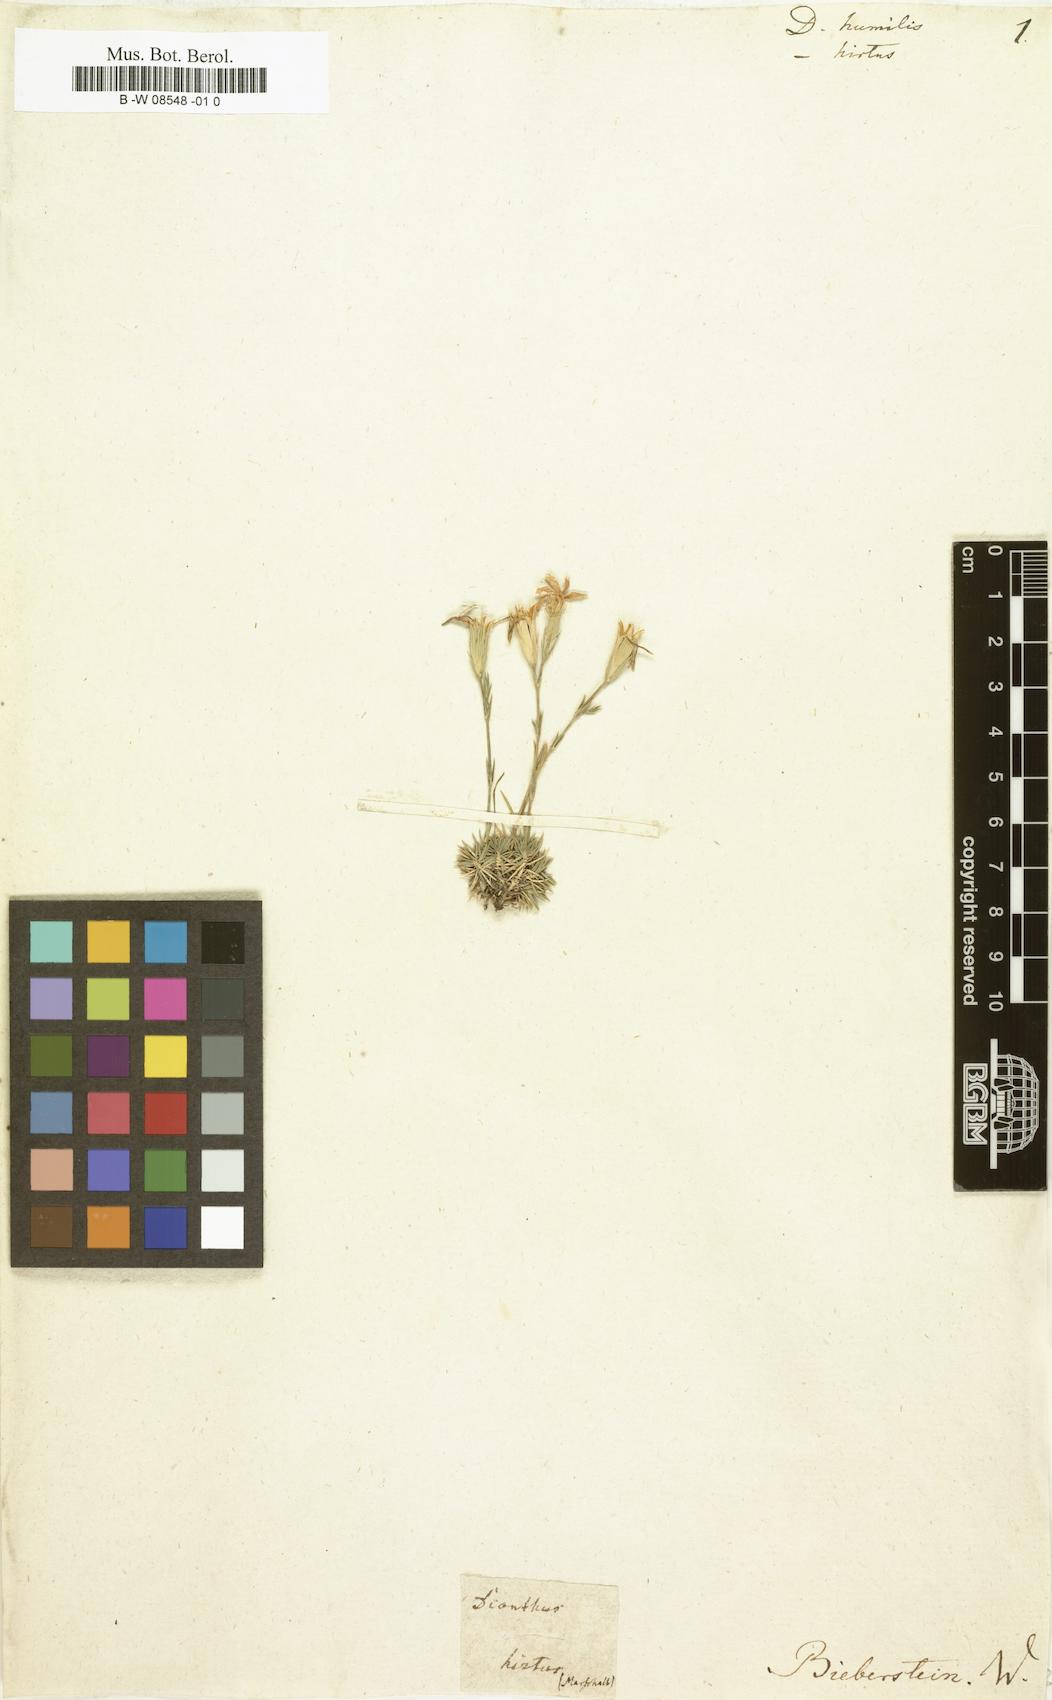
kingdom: Plantae
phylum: Tracheophyta
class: Magnoliopsida
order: Caryophyllales
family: Caryophyllaceae
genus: Dianthus
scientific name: Dianthus humilis
